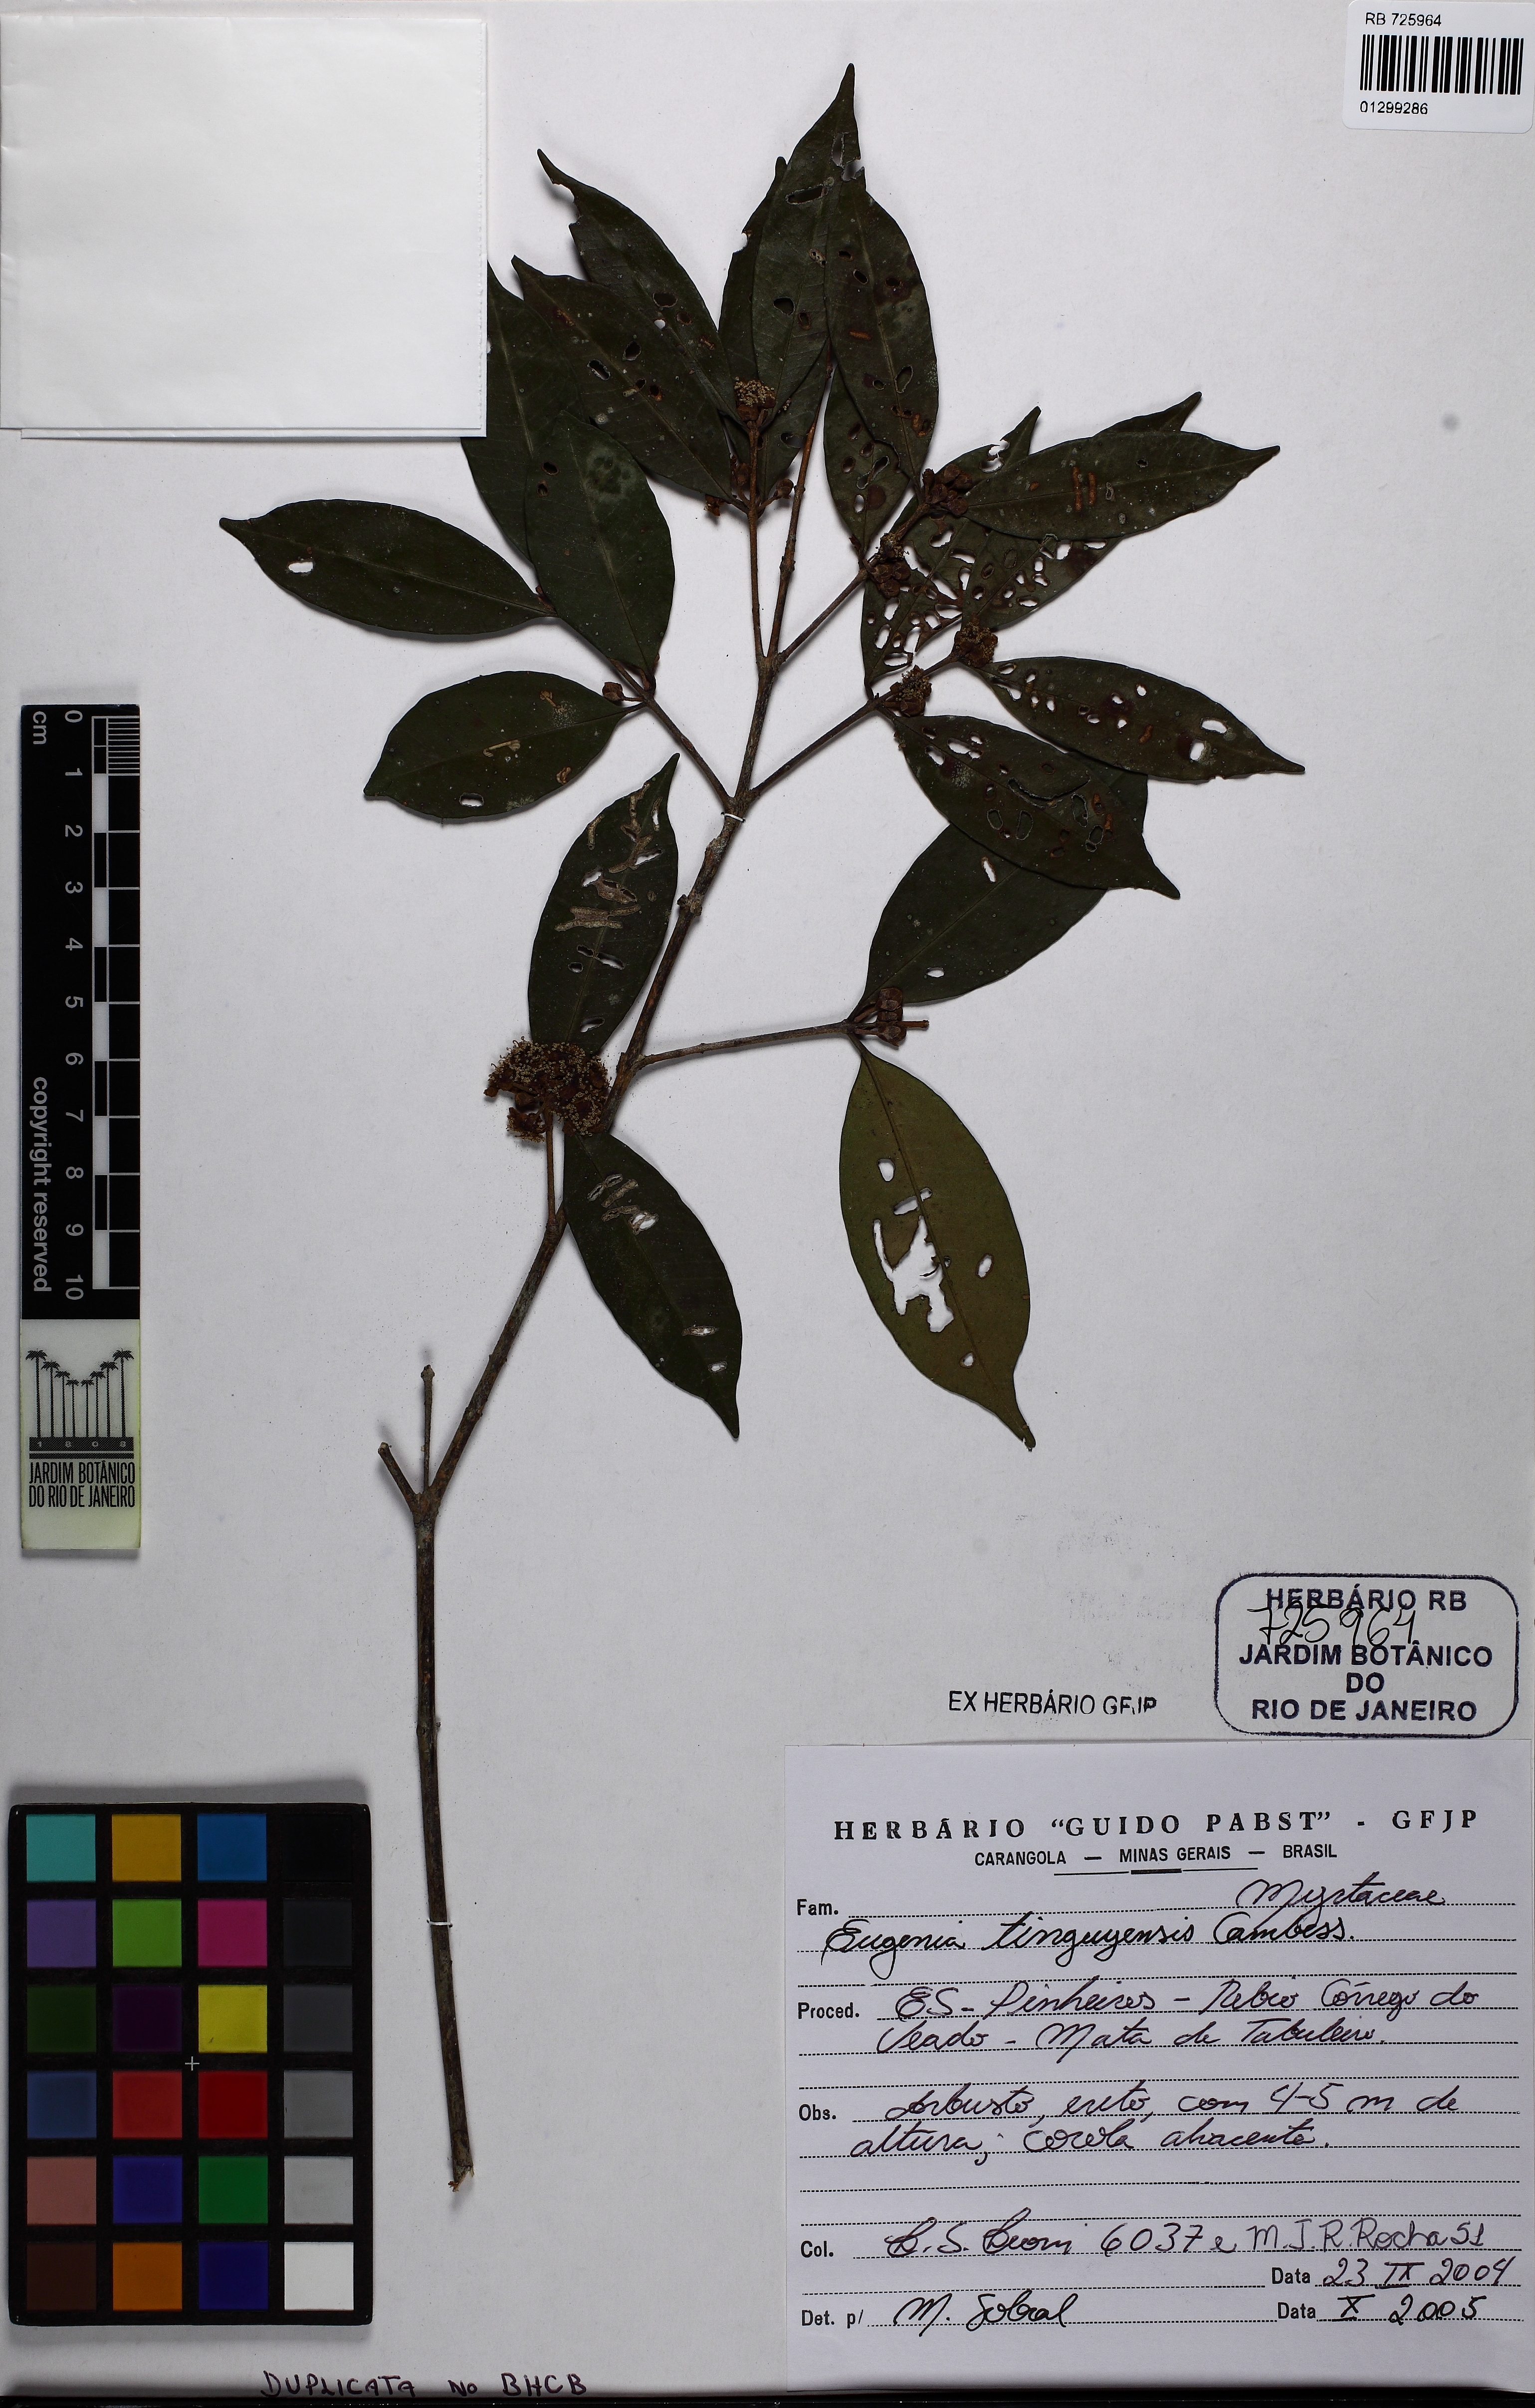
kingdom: Plantae
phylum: Tracheophyta
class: Magnoliopsida
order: Myrtales
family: Myrtaceae
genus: Eugenia
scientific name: Eugenia pisiformis
